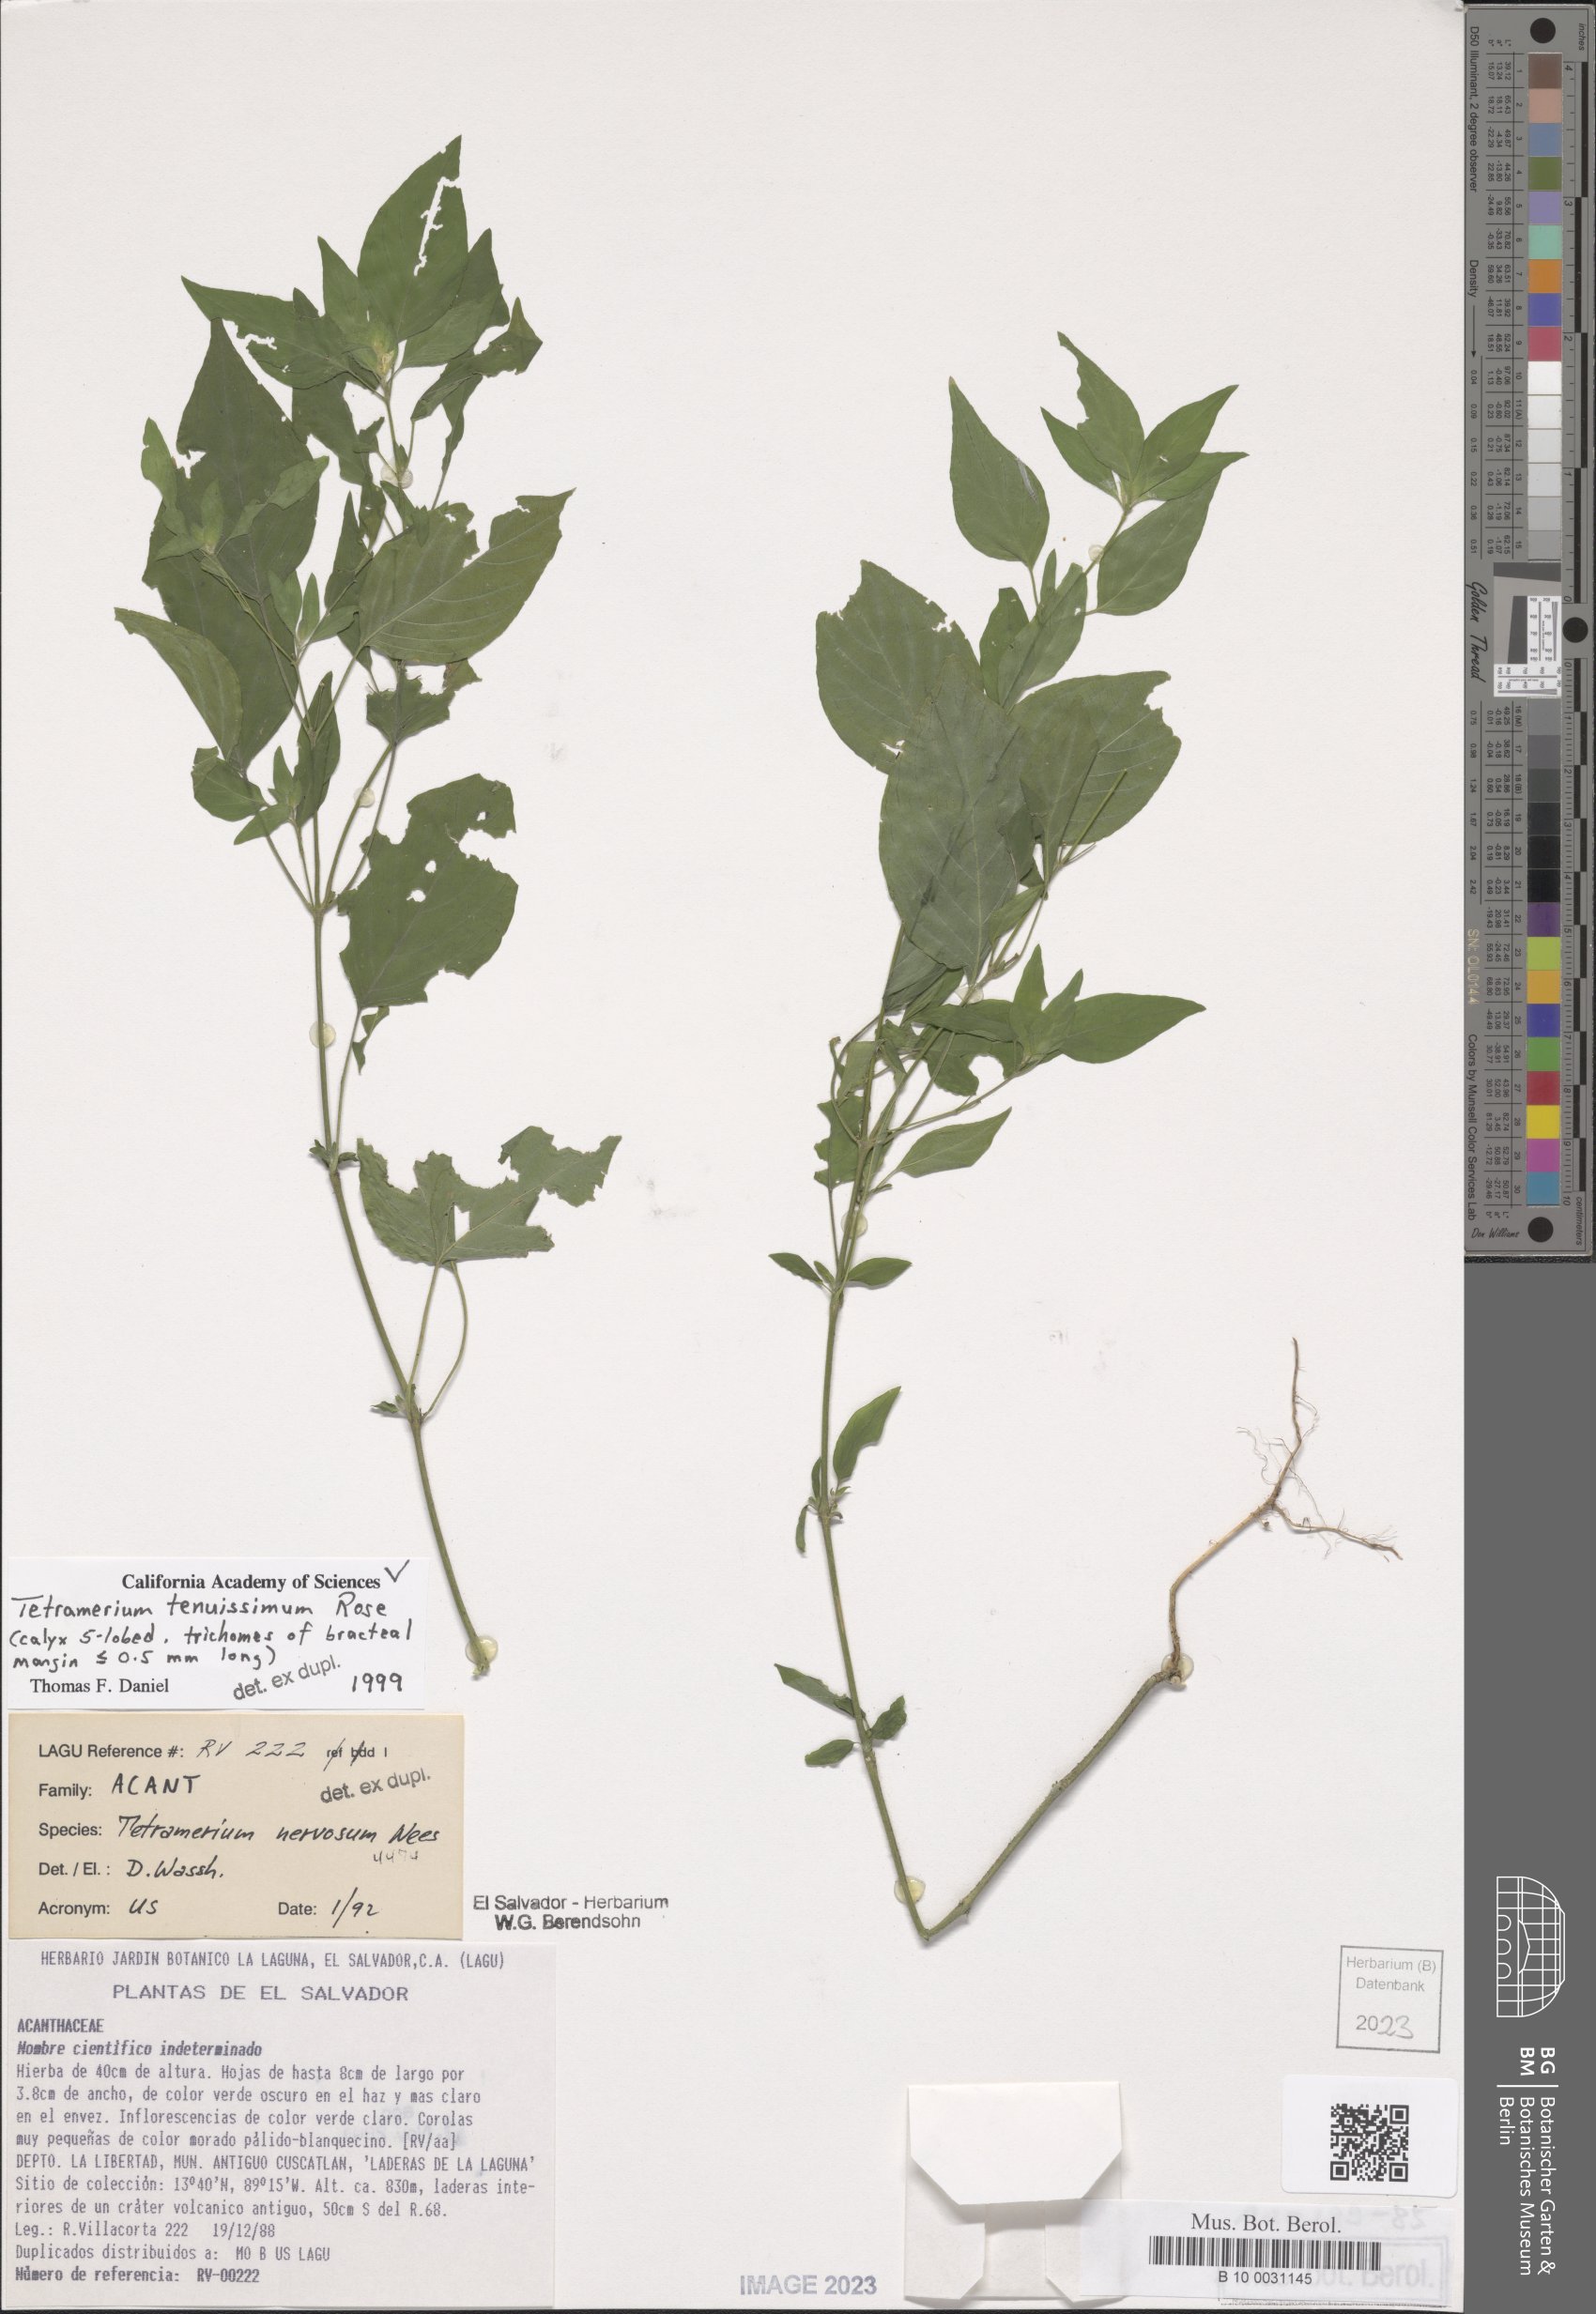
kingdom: Plantae
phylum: Tracheophyta
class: Magnoliopsida
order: Lamiales
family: Acanthaceae
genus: Tetramerium
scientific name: Tetramerium tenuissimum
